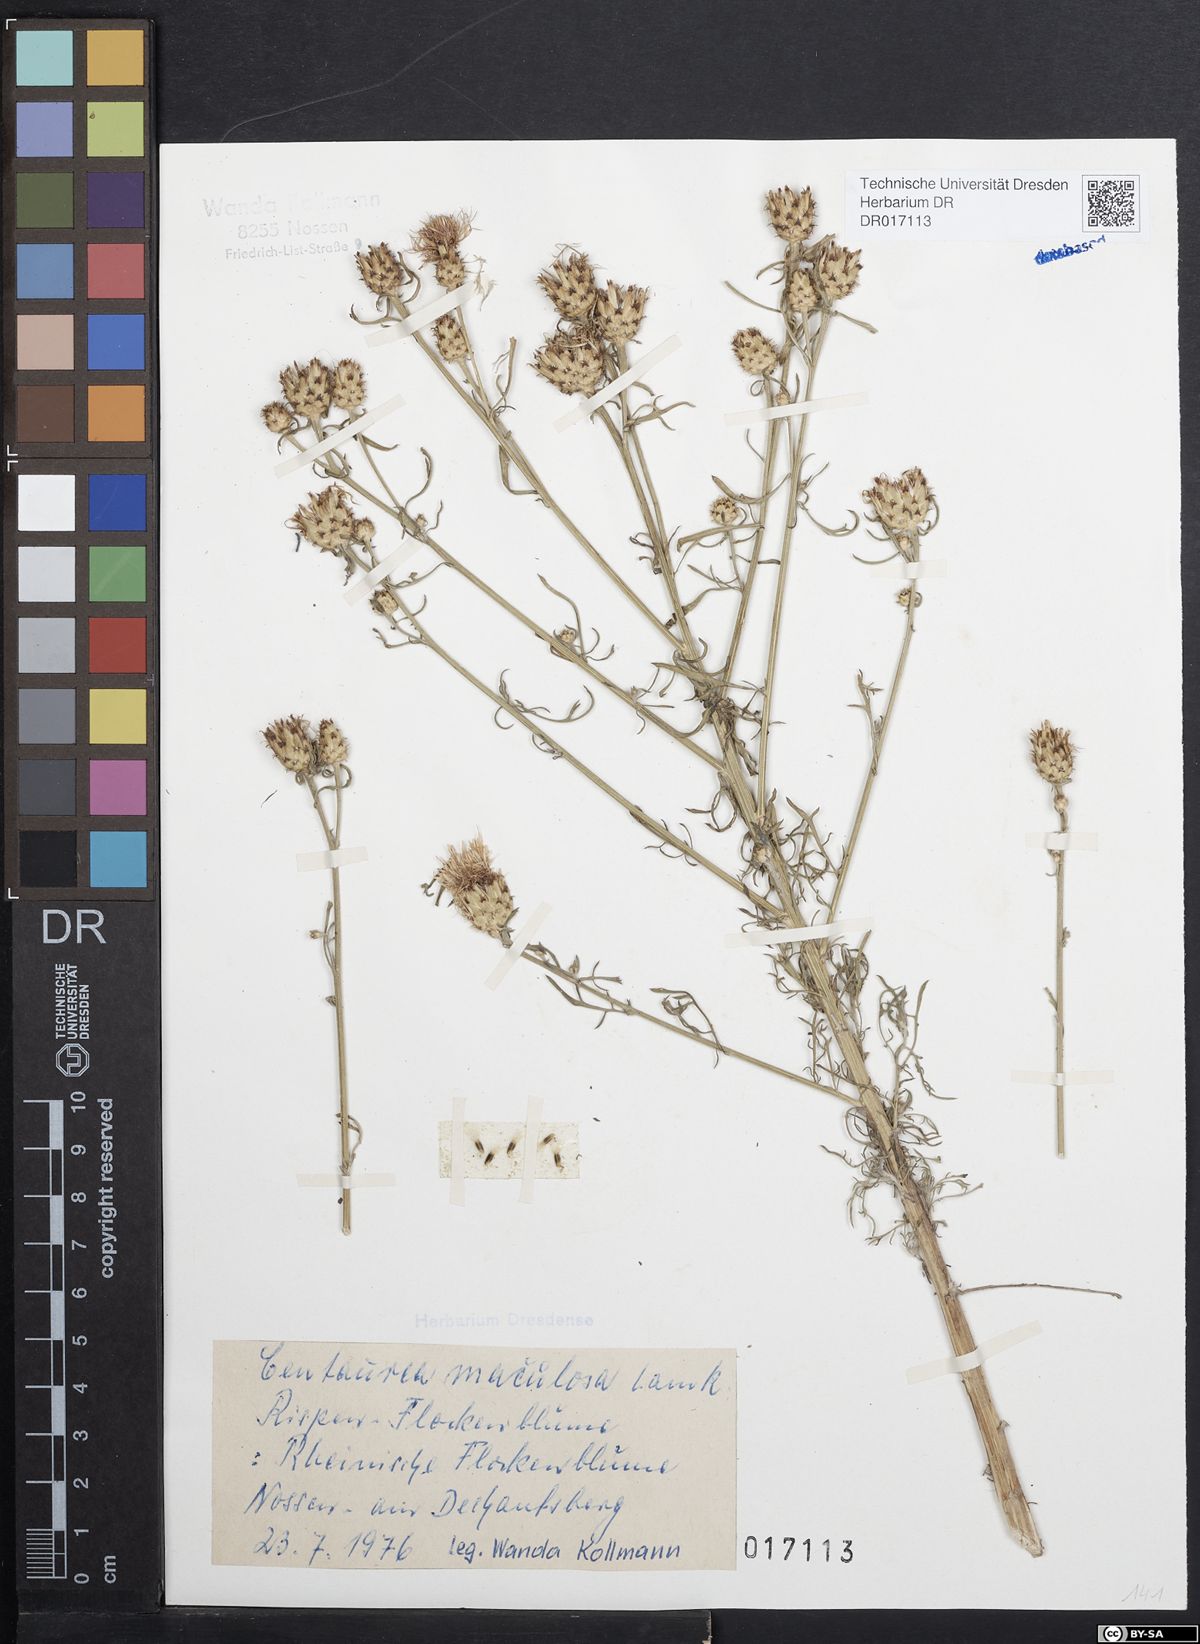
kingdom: Plantae
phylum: Tracheophyta
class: Magnoliopsida
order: Asterales
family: Asteraceae
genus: Centaurea
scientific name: Centaurea stoebe
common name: Spotted knapweed
